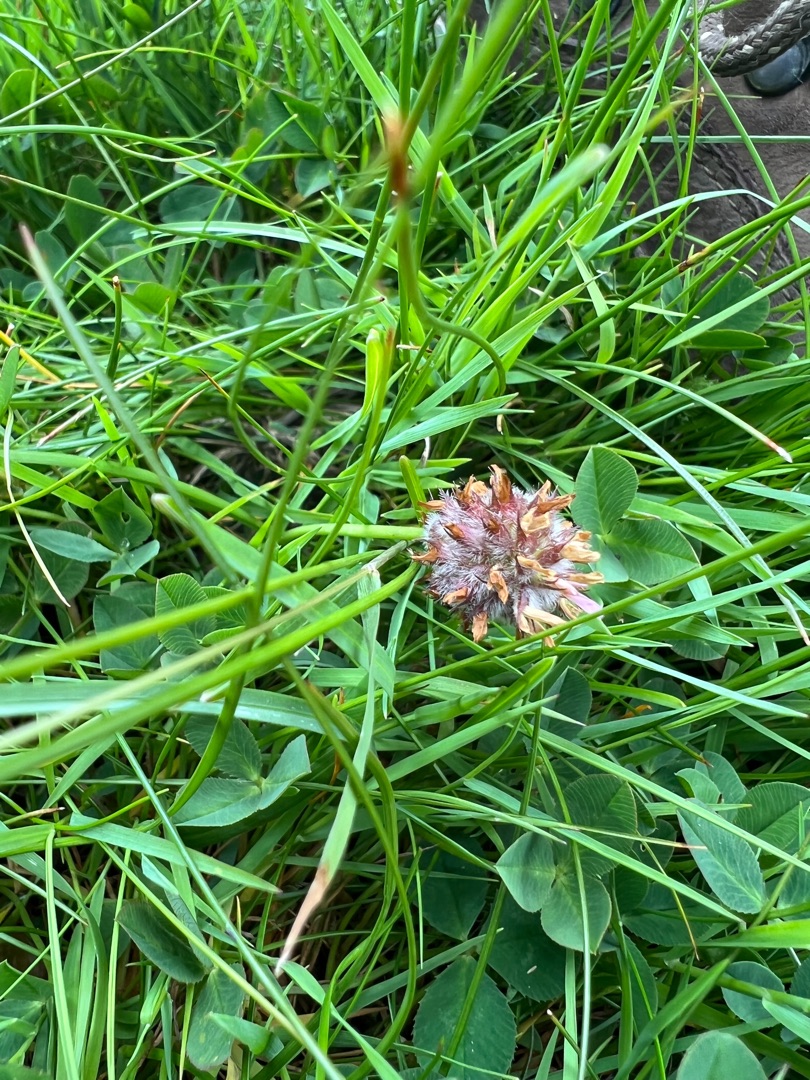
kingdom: Plantae
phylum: Tracheophyta
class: Magnoliopsida
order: Fabales
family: Fabaceae
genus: Trifolium
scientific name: Trifolium fragiferum
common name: Jordbær-kløver
